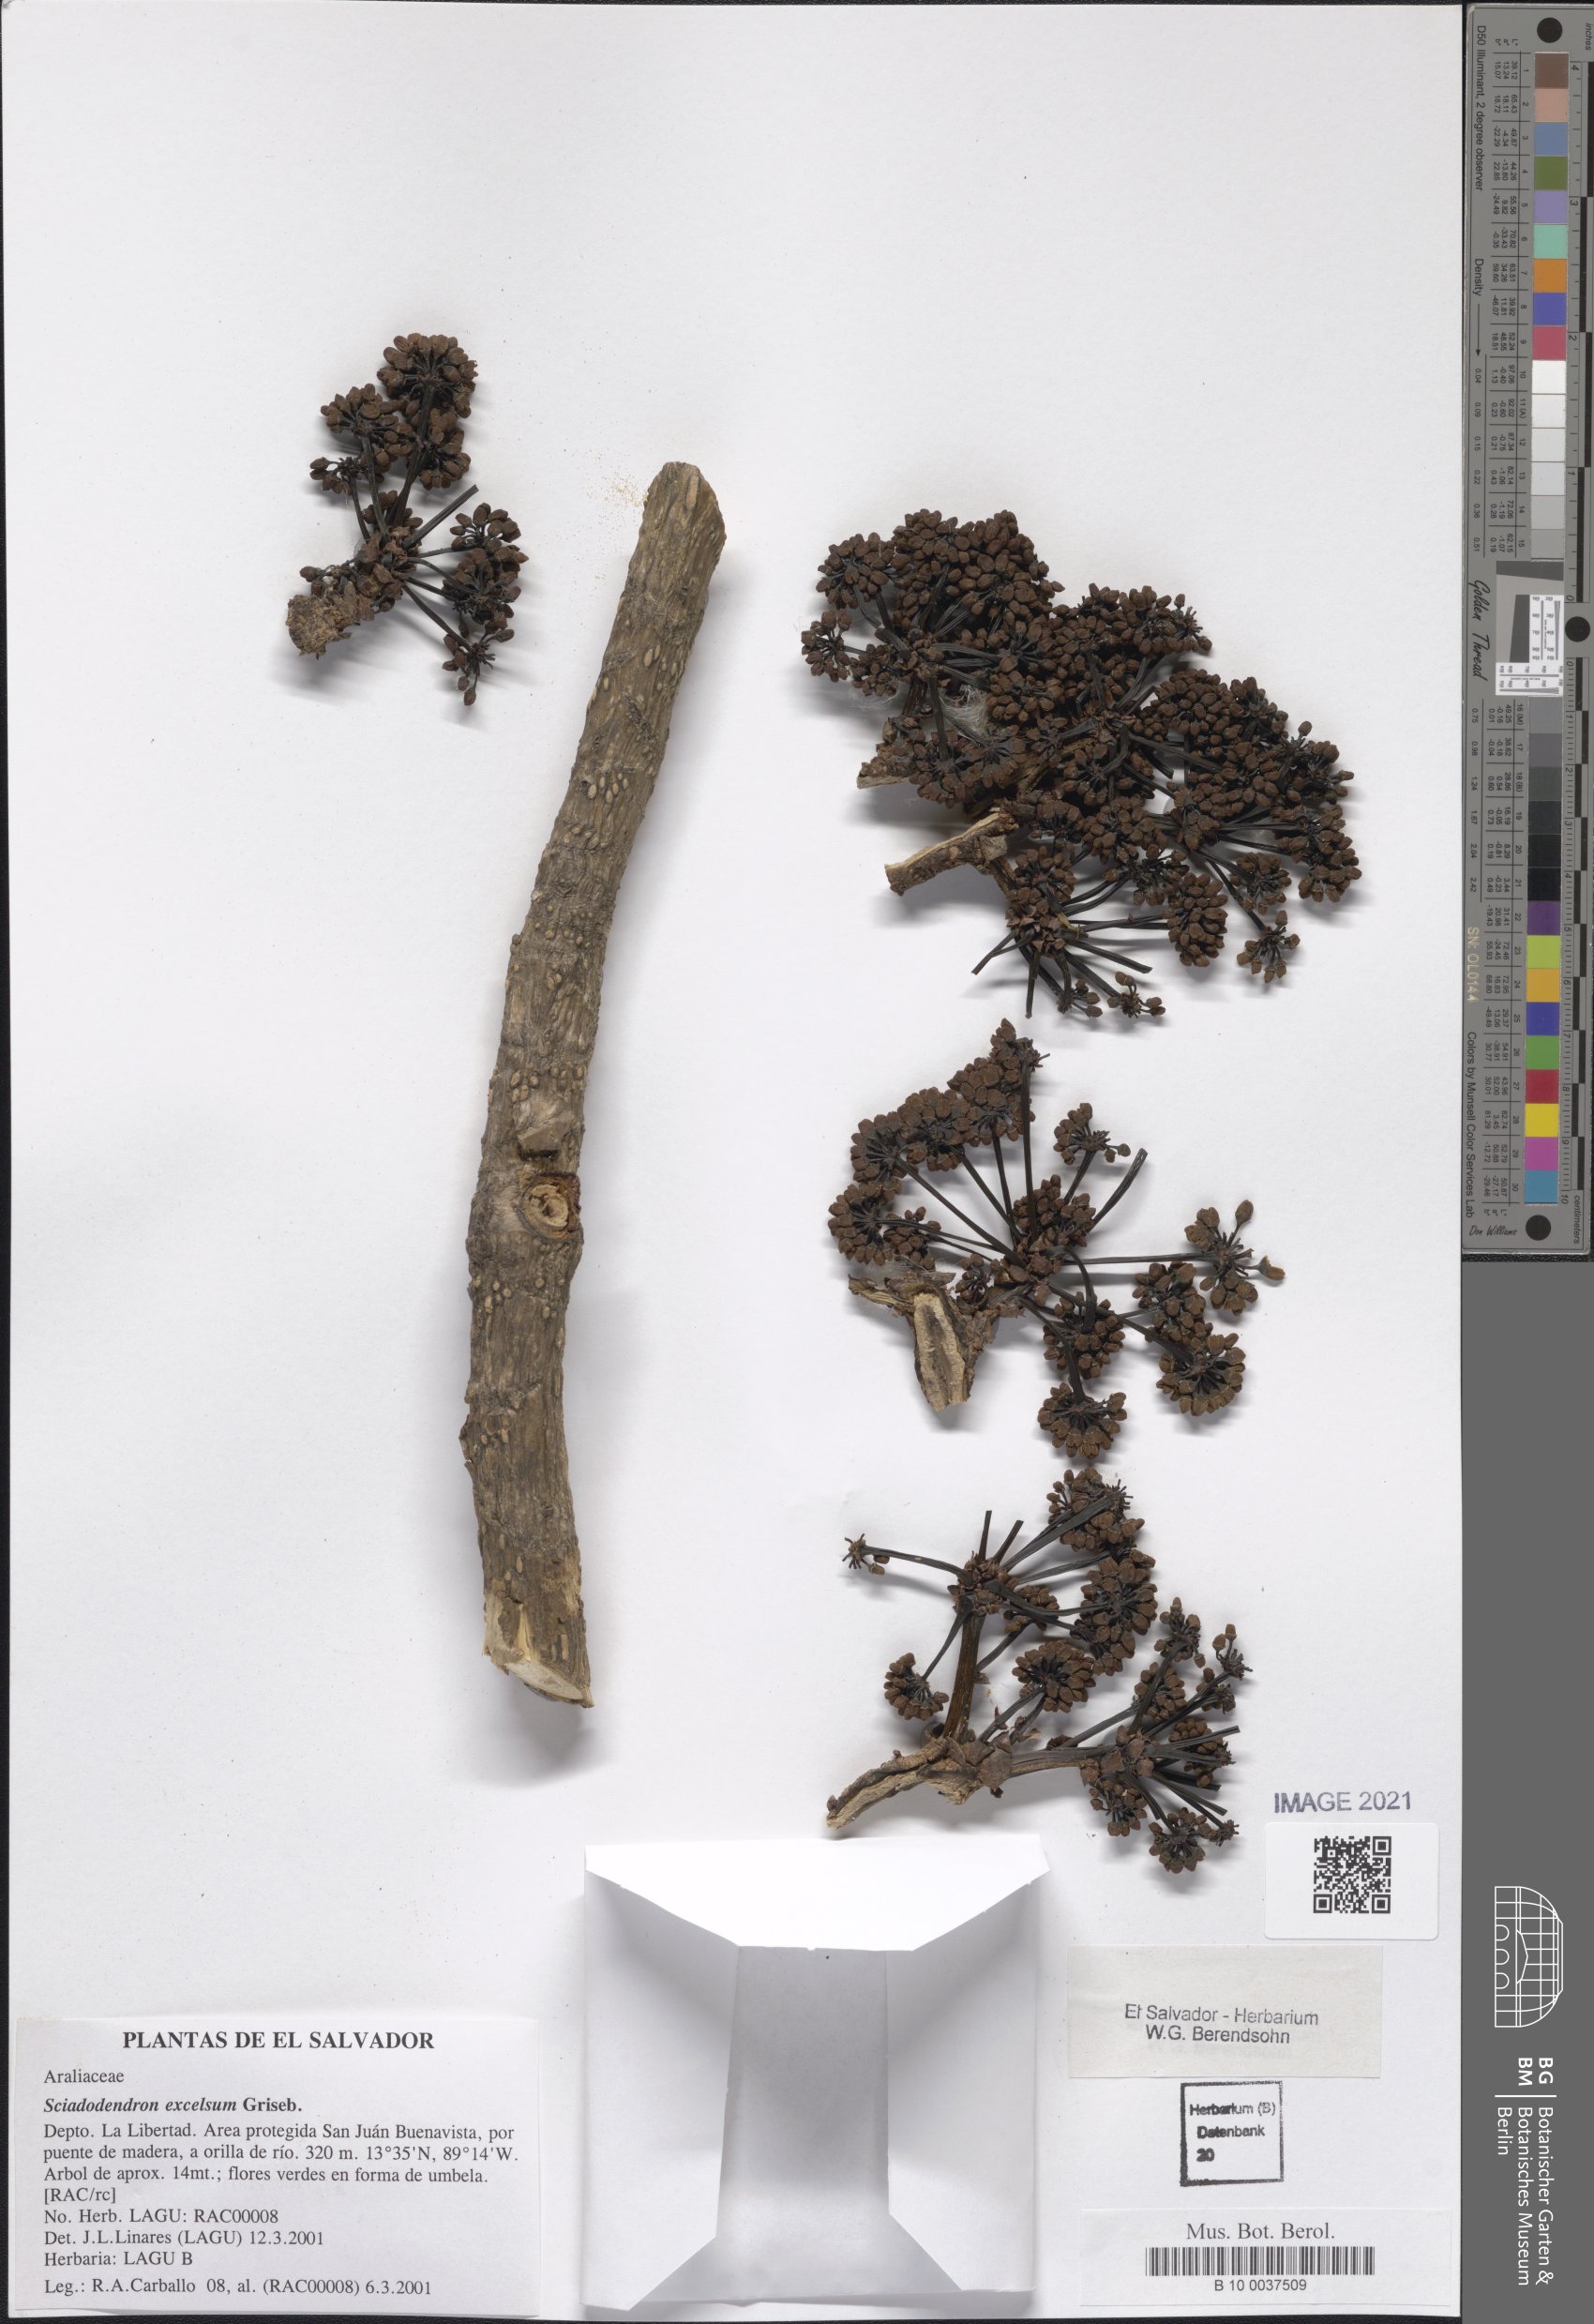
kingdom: Plantae
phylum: Tracheophyta
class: Magnoliopsida
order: Apiales
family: Araliaceae
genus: Aralia
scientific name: Aralia excelsa
